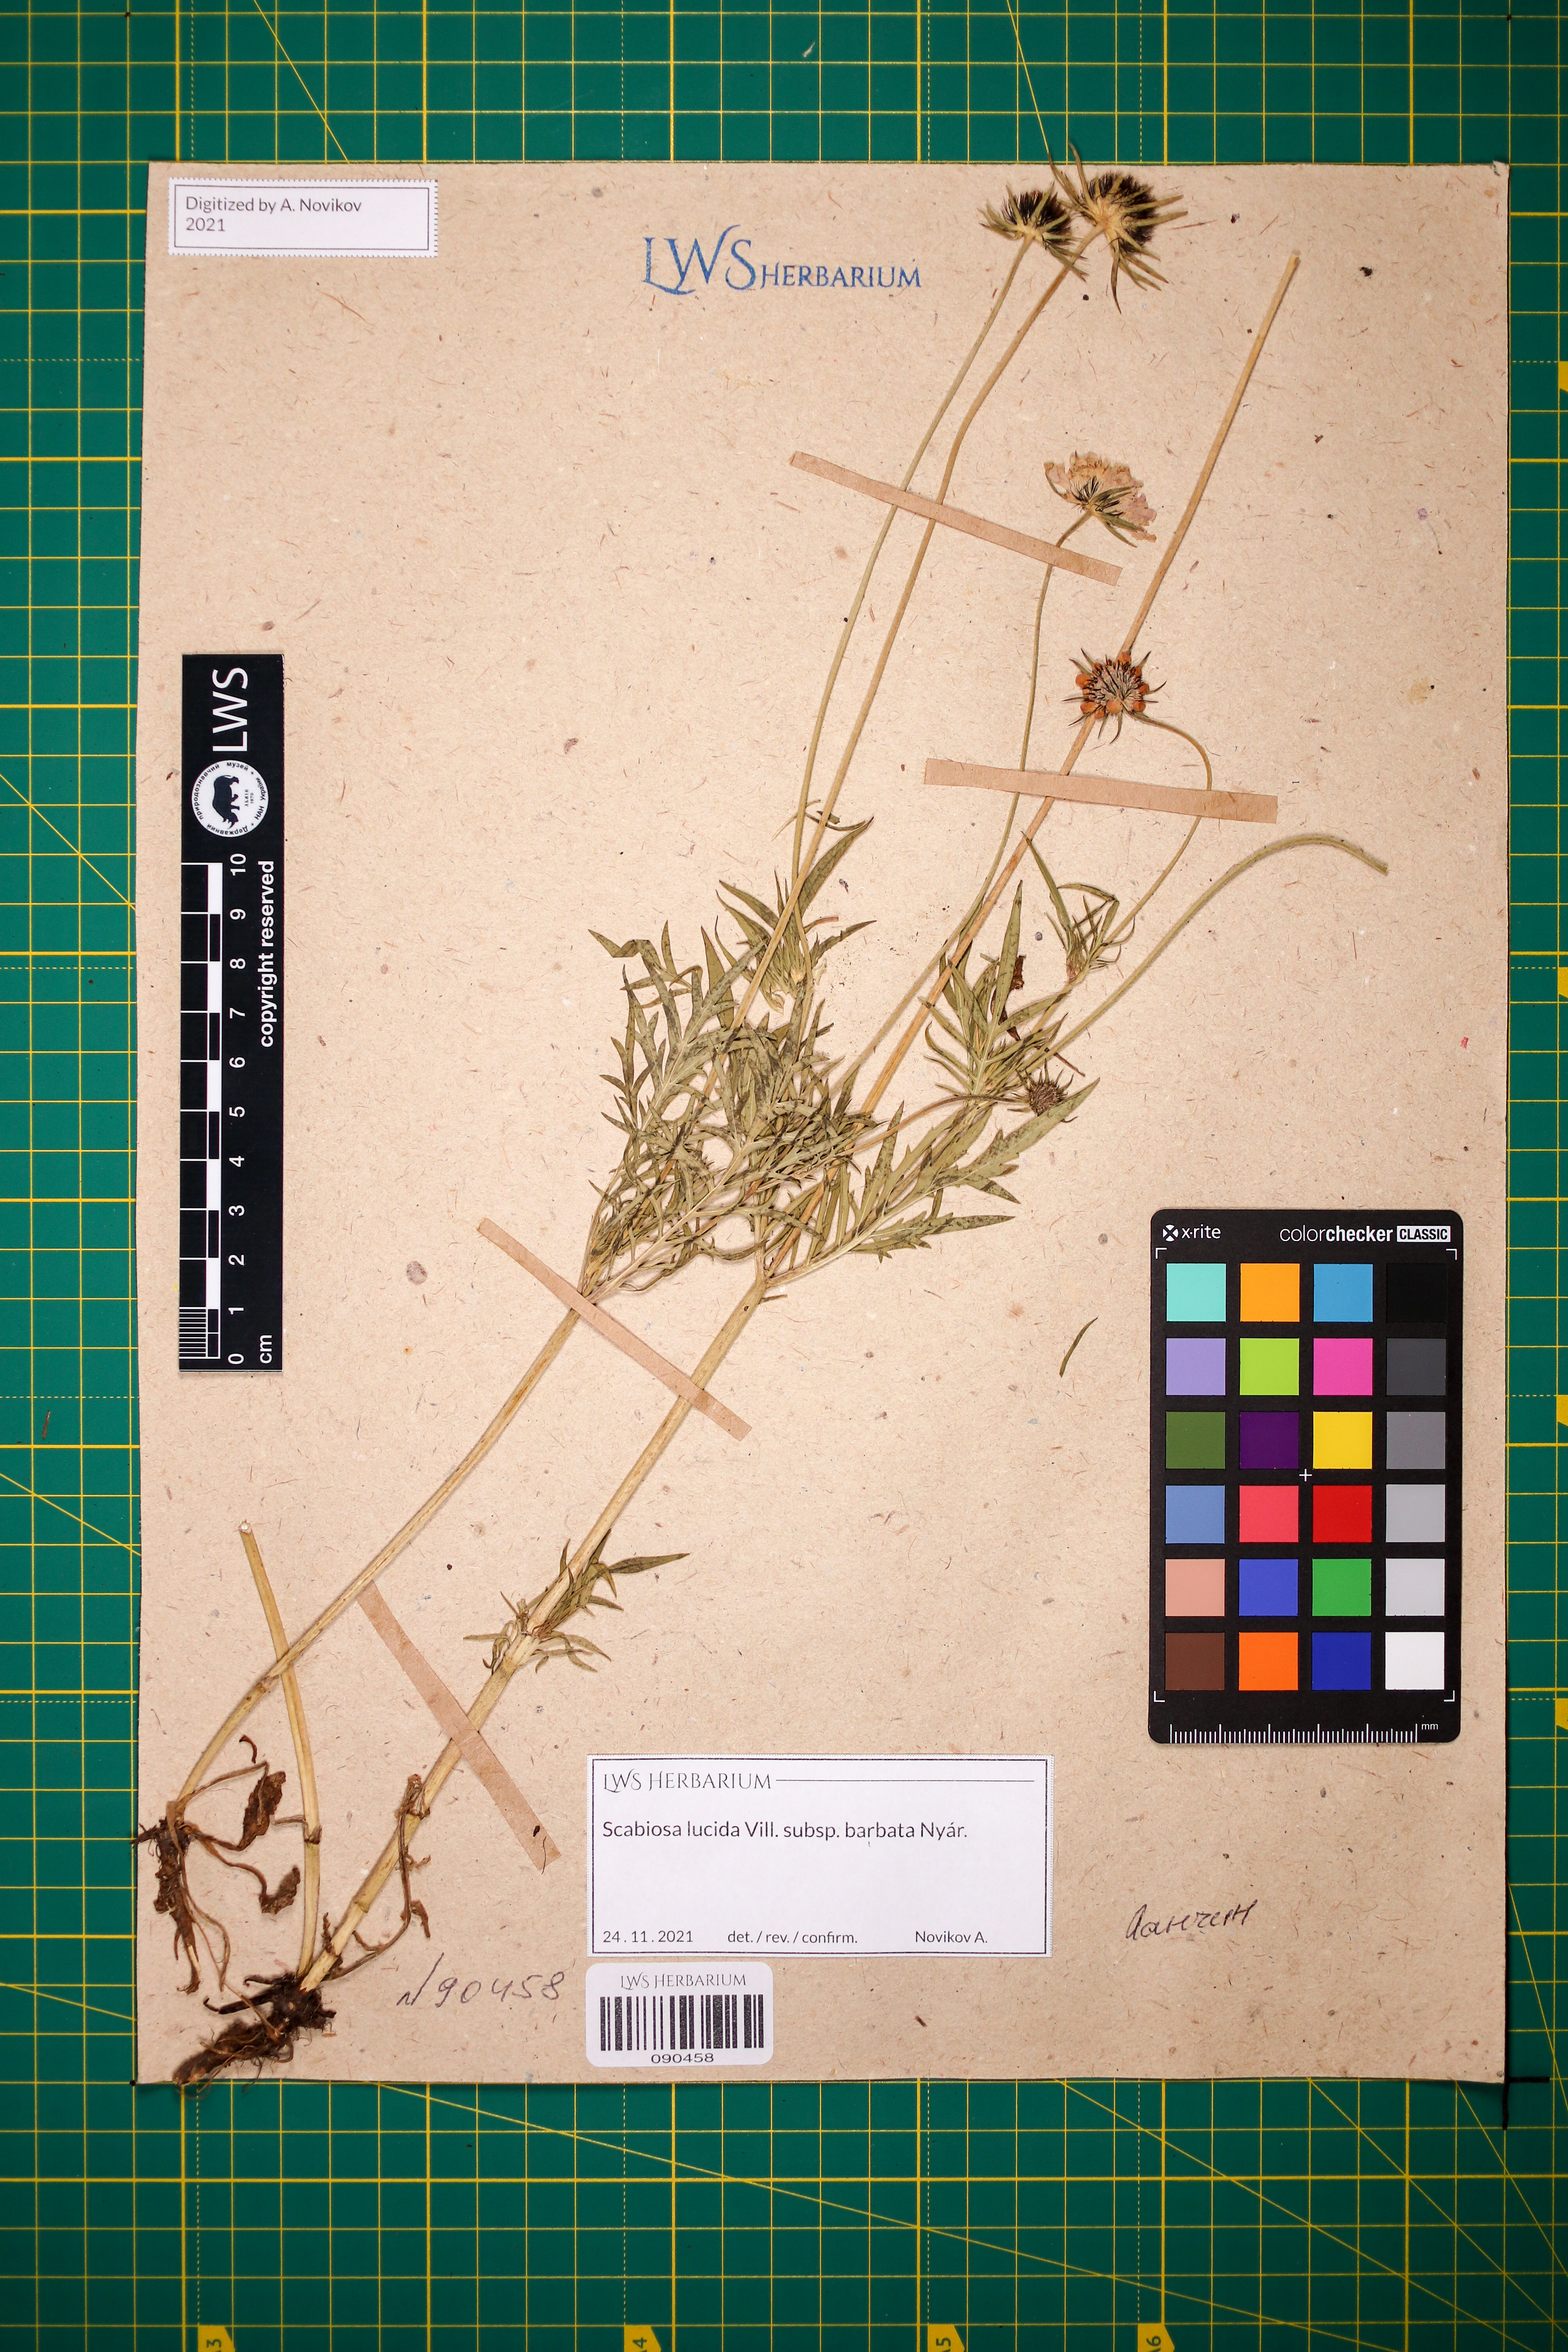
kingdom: Plantae
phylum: Tracheophyta
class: Magnoliopsida
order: Dipsacales
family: Caprifoliaceae
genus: Scabiosa
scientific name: Scabiosa lucida
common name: Shining scabious
